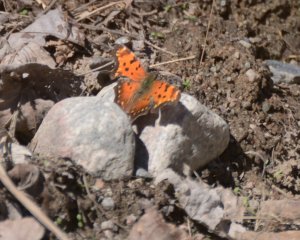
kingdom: Animalia
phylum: Arthropoda
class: Insecta
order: Lepidoptera
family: Nymphalidae
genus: Polygonia
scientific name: Polygonia progne
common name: Gray Comma
